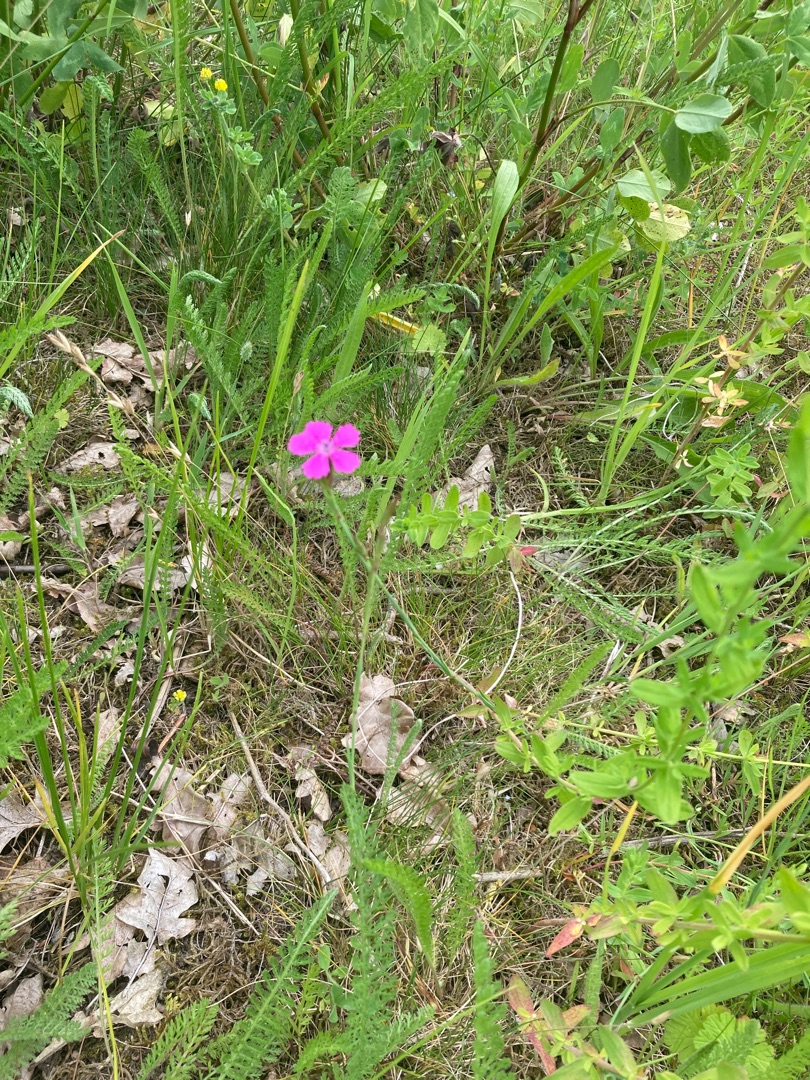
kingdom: Plantae
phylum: Tracheophyta
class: Magnoliopsida
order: Caryophyllales
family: Caryophyllaceae
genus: Dianthus
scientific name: Dianthus deltoides
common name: Bakke-nellike
